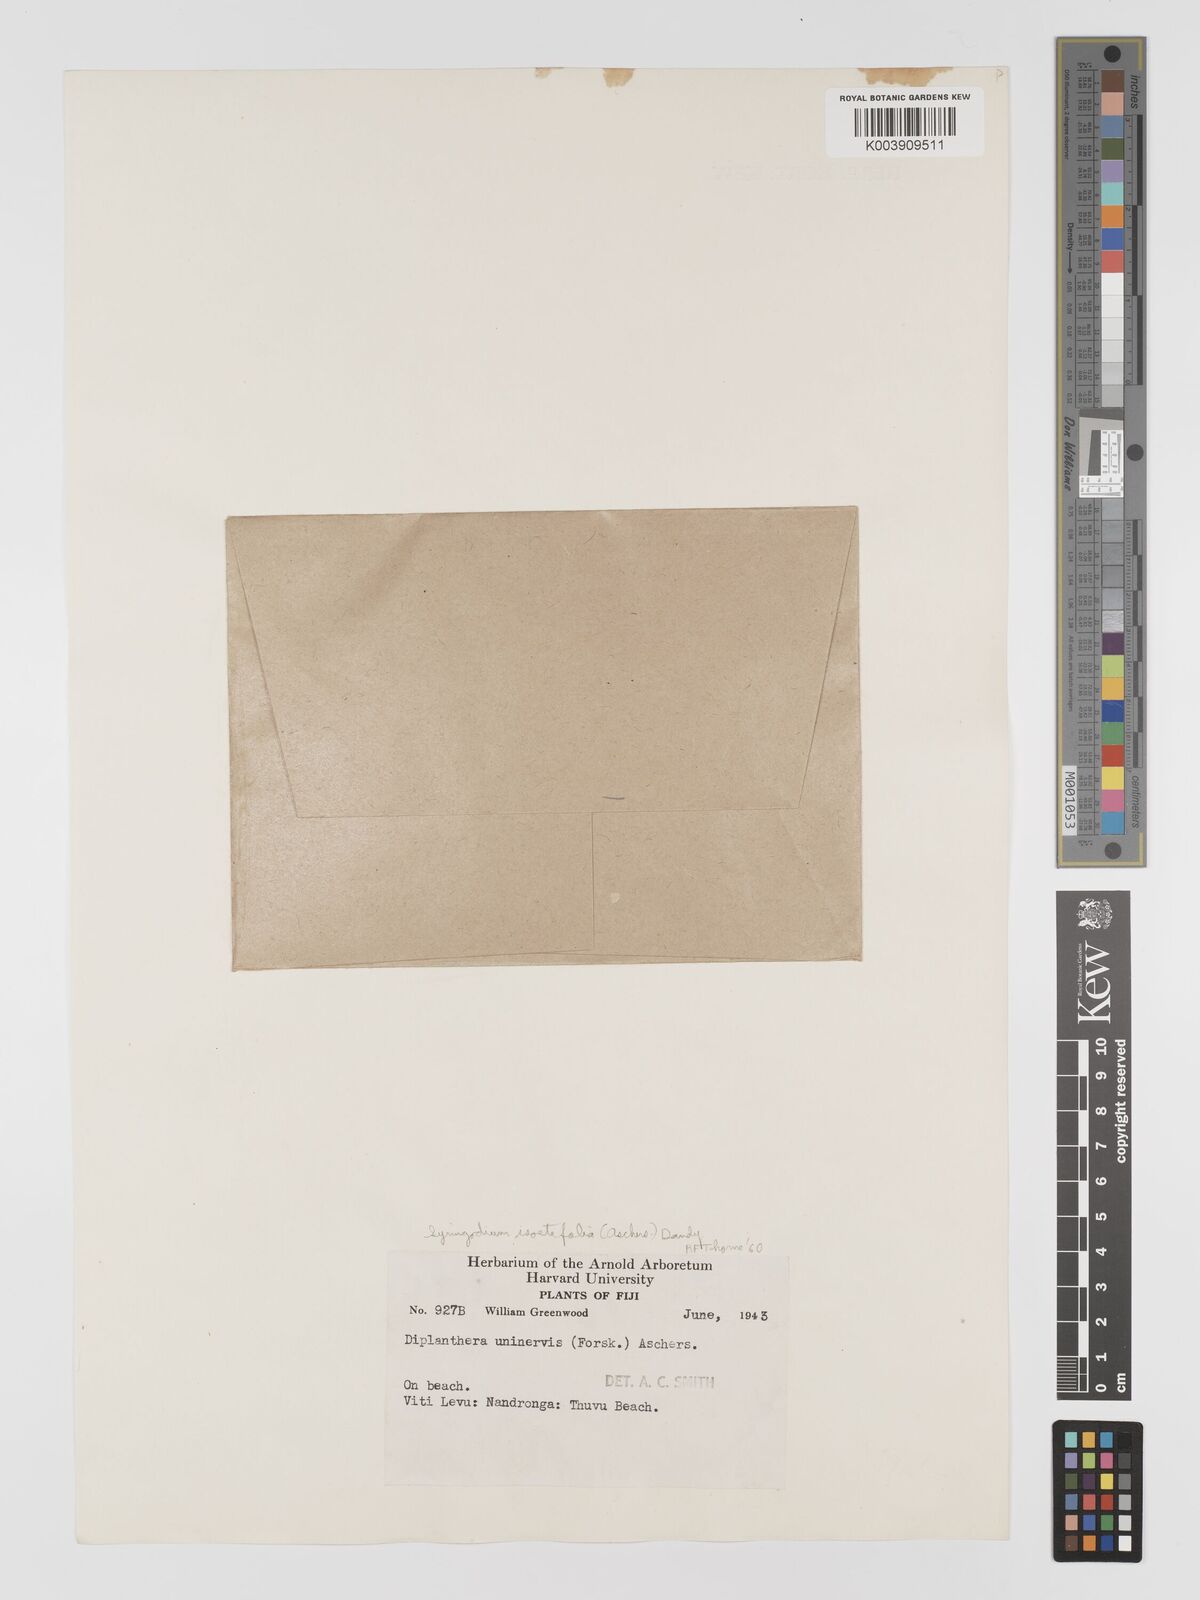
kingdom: Plantae
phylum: Tracheophyta
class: Liliopsida
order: Alismatales
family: Cymodoceaceae
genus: Syringodium
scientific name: Syringodium isoetifolium
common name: Species code: si
